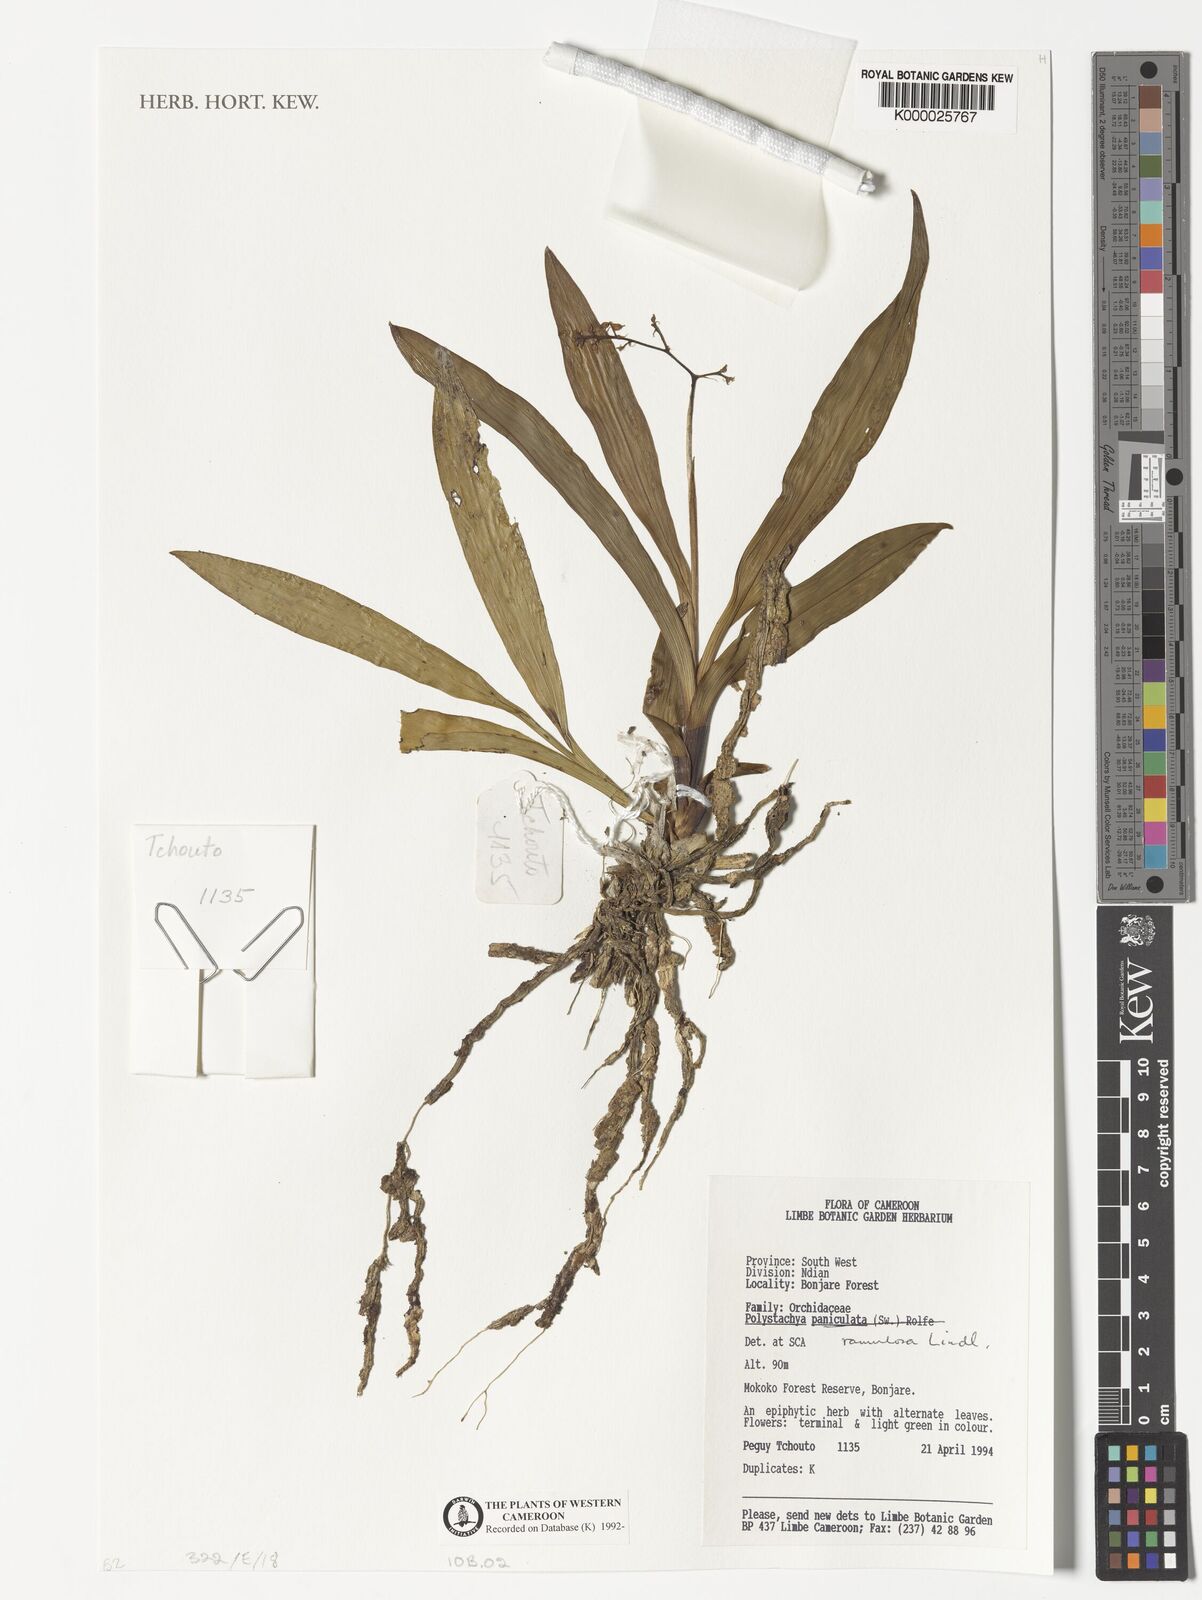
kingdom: Plantae
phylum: Tracheophyta
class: Liliopsida
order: Asparagales
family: Orchidaceae
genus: Polystachya
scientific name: Polystachya ramulosa
